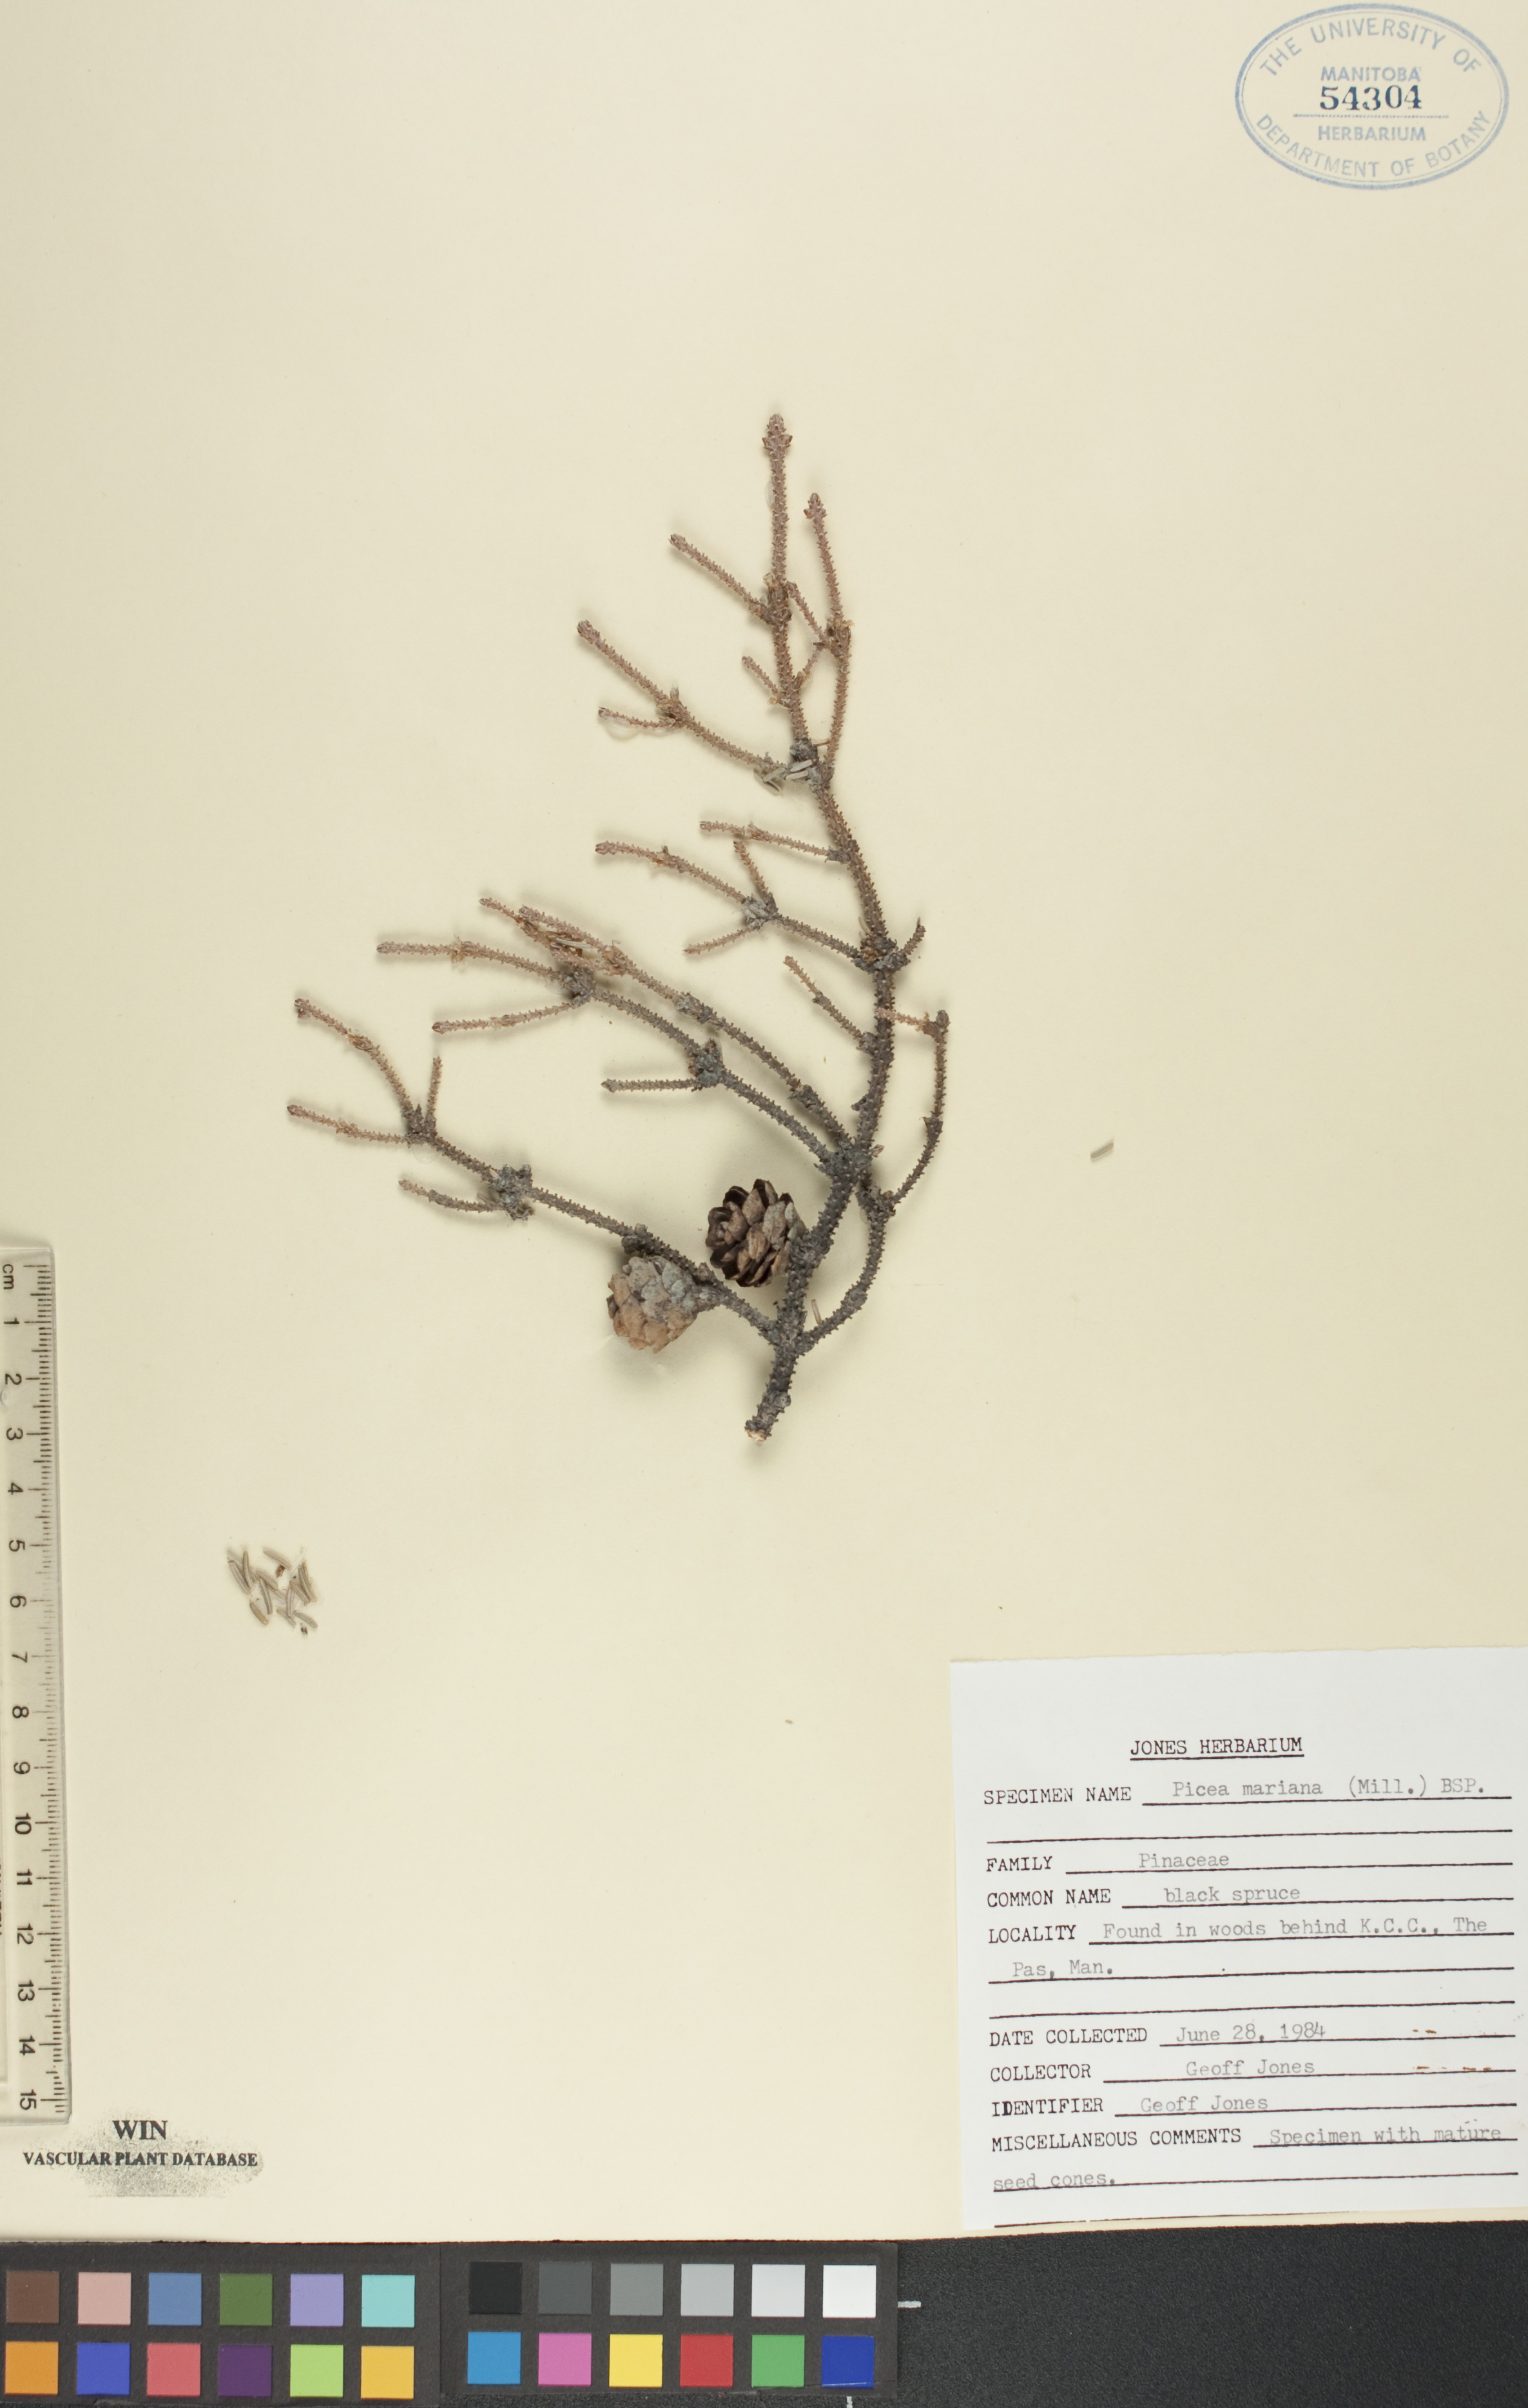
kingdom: Plantae
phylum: Tracheophyta
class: Pinopsida
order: Pinales
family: Pinaceae
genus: Picea
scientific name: Picea mariana
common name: Black spruce
